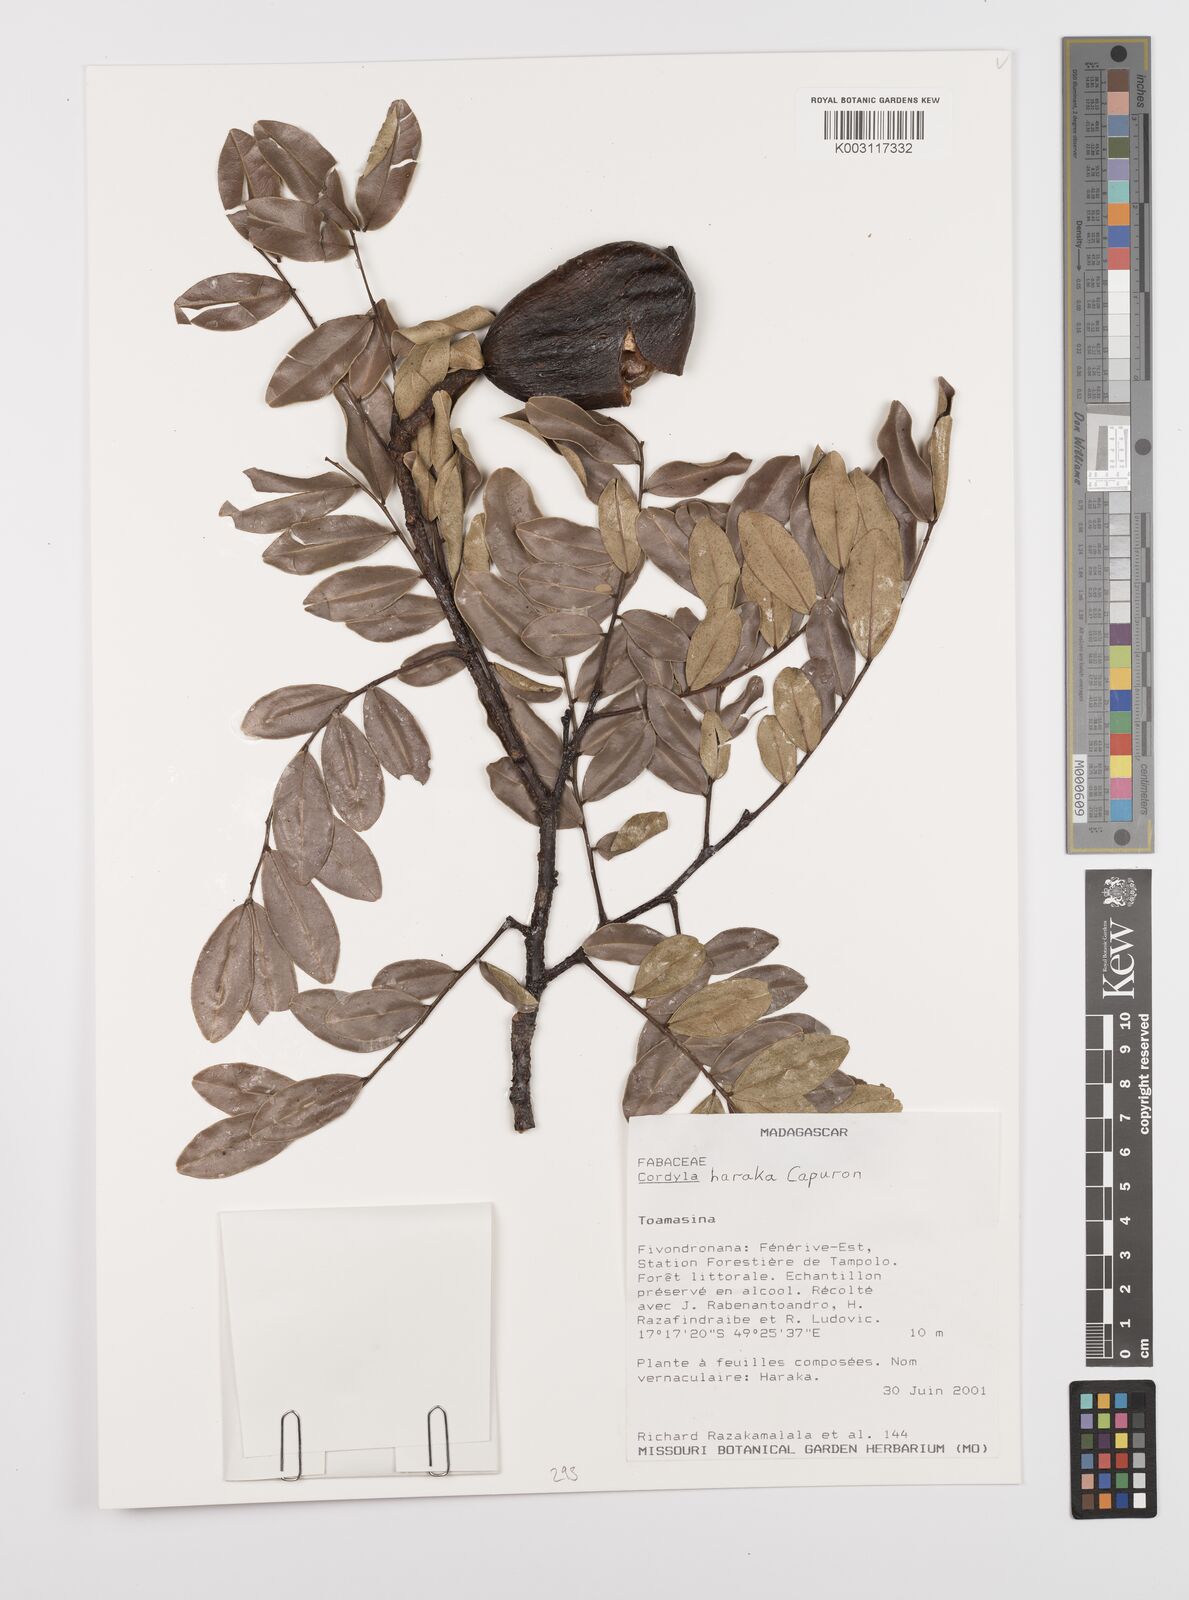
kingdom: Plantae
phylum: Tracheophyta
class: Magnoliopsida
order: Fabales
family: Fabaceae
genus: Cordyla
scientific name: Cordyla haraka
